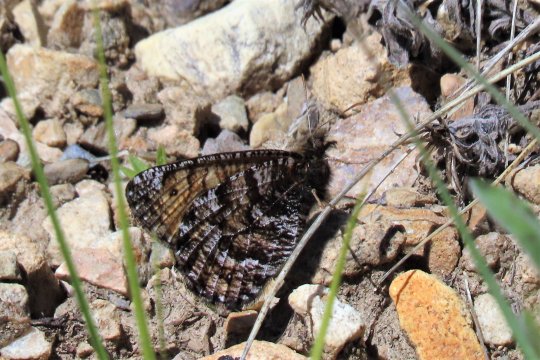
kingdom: Animalia
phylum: Arthropoda
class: Insecta
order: Lepidoptera
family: Nymphalidae
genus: Oeneis
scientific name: Oeneis chryxus
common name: Chryxus Arctic
